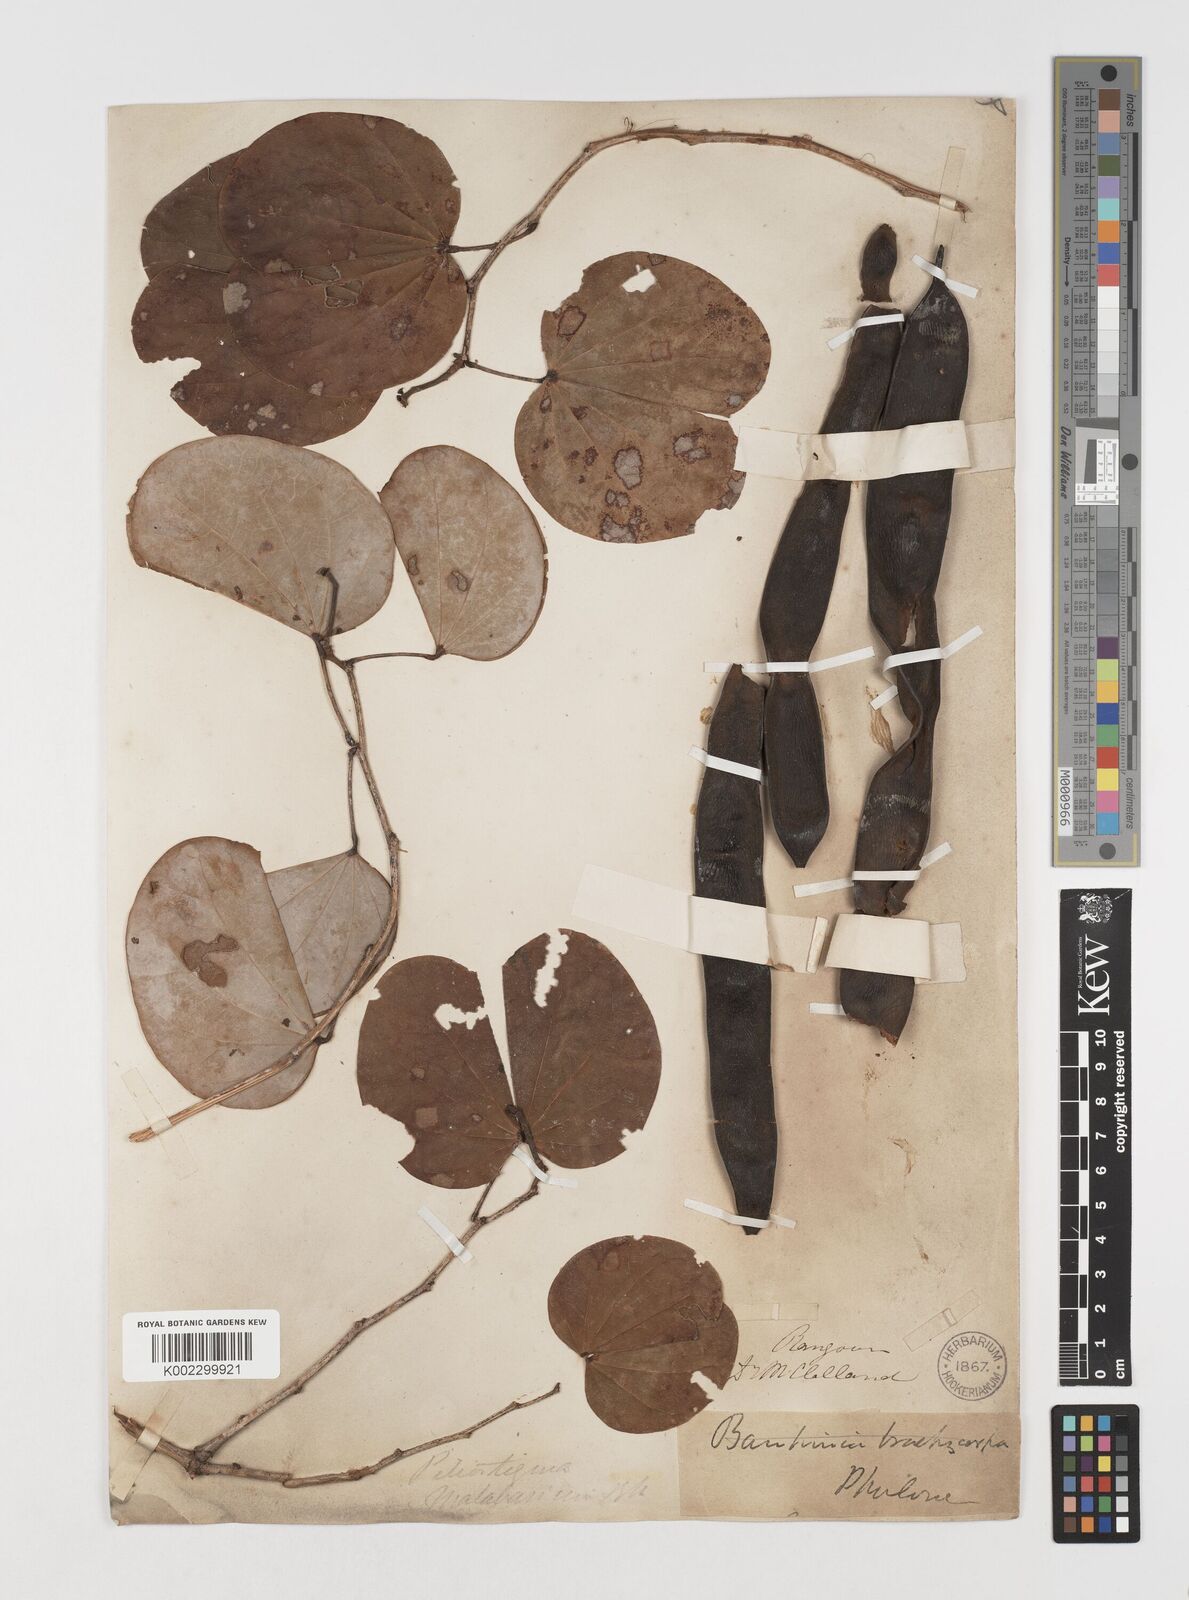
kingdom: Plantae
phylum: Tracheophyta
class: Magnoliopsida
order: Fabales
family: Fabaceae
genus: Piliostigma
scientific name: Piliostigma malabaricum
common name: Malabar bauhinia
